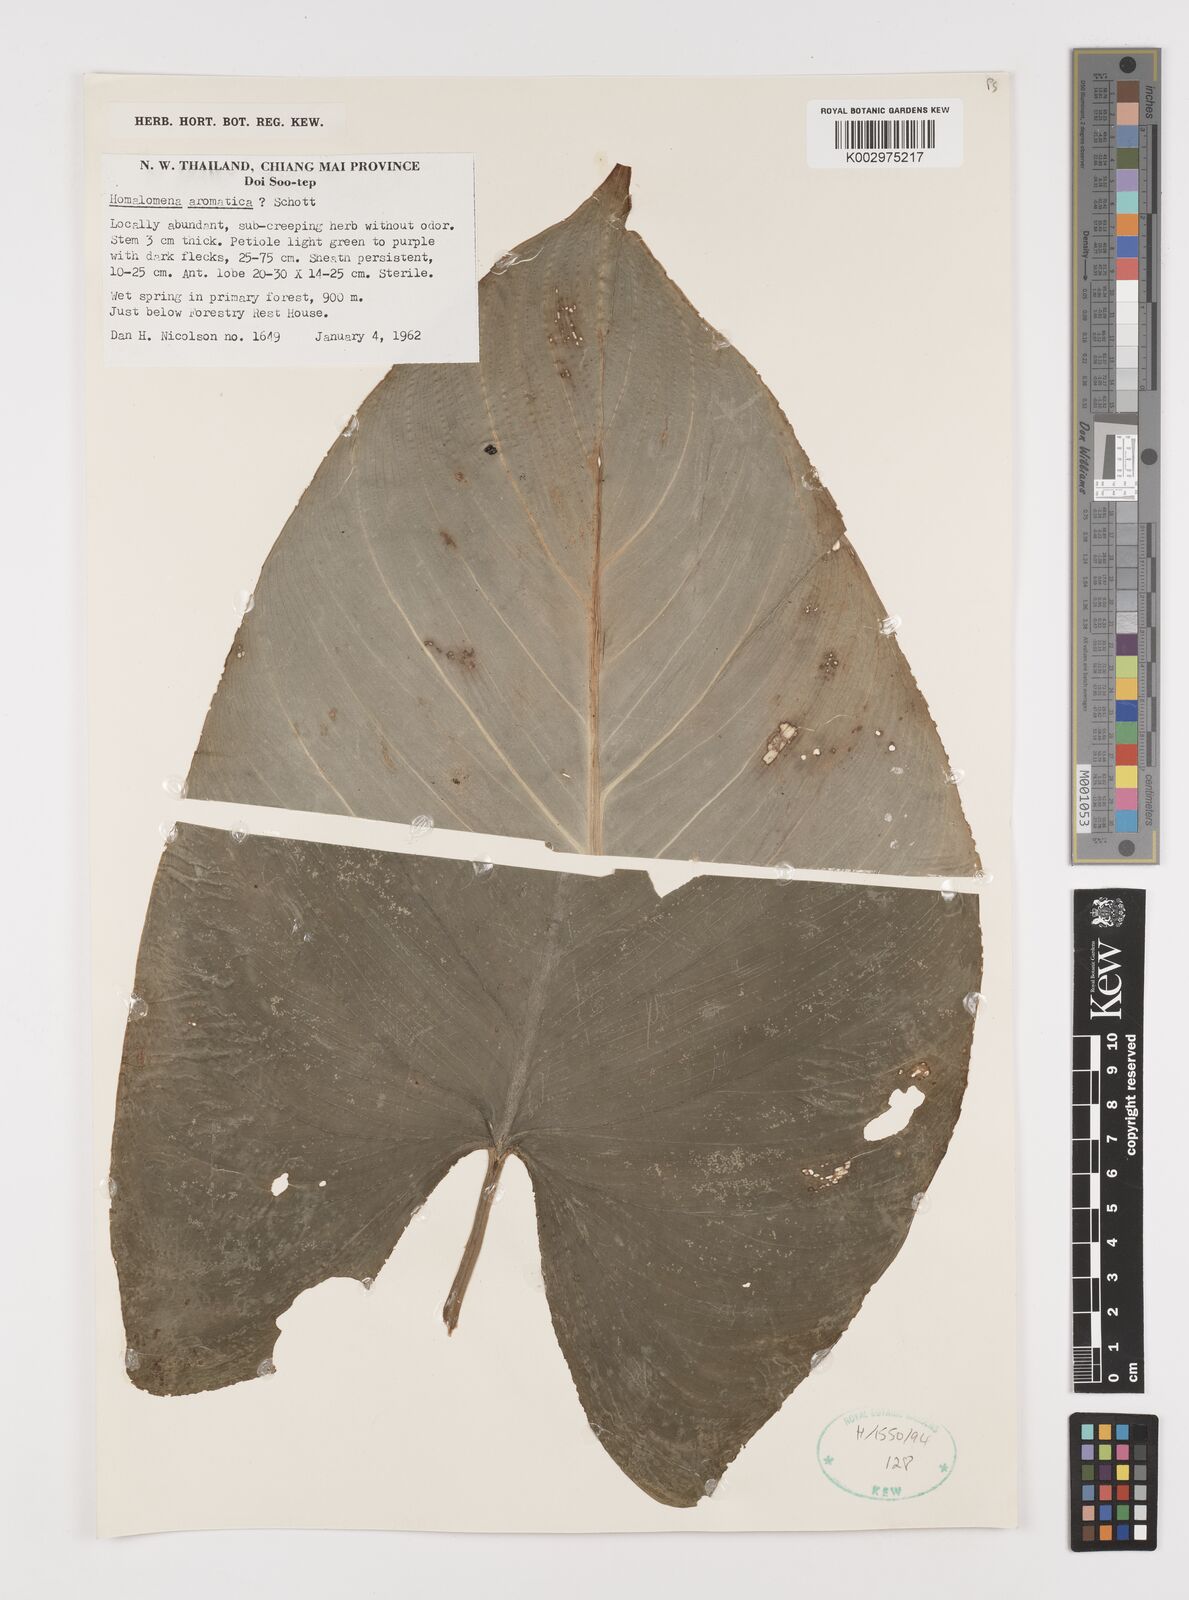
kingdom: Plantae
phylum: Tracheophyta
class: Liliopsida
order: Alismatales
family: Araceae
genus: Homalomena
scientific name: Homalomena aromatica
